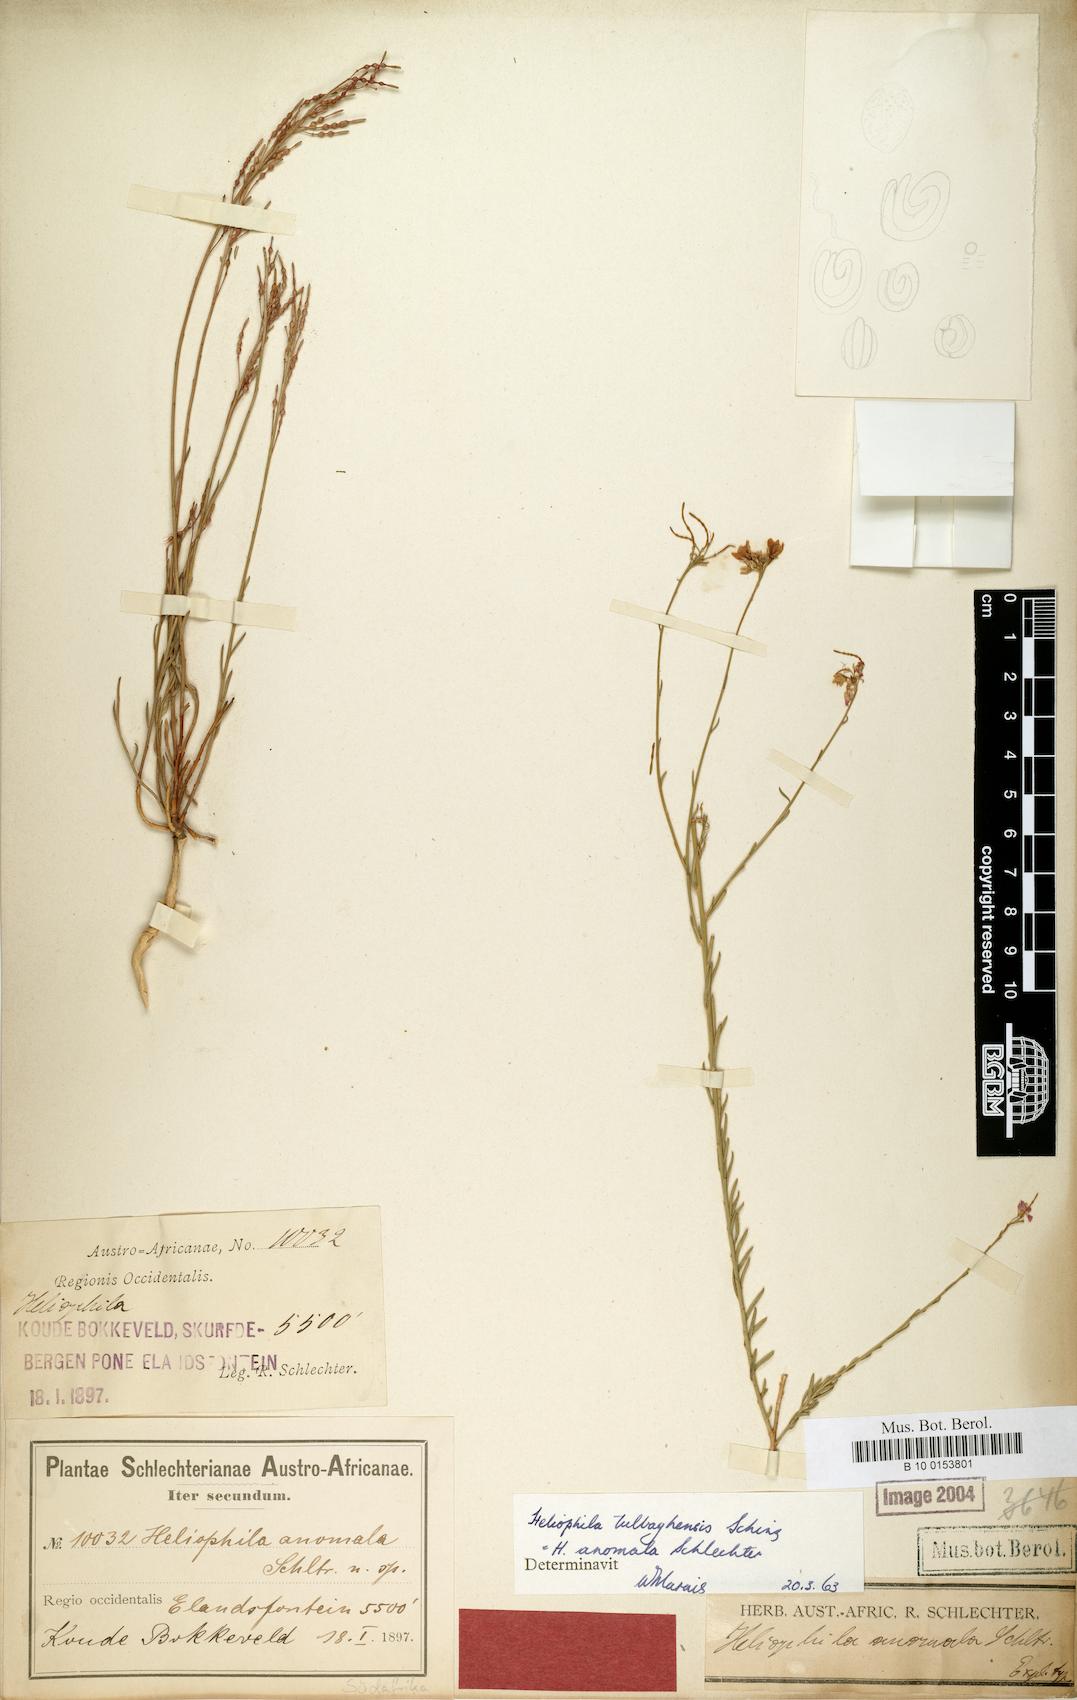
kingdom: Plantae
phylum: Tracheophyta
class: Magnoliopsida
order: Brassicales
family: Brassicaceae
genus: Heliophila
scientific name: Heliophila tulbaghensis
